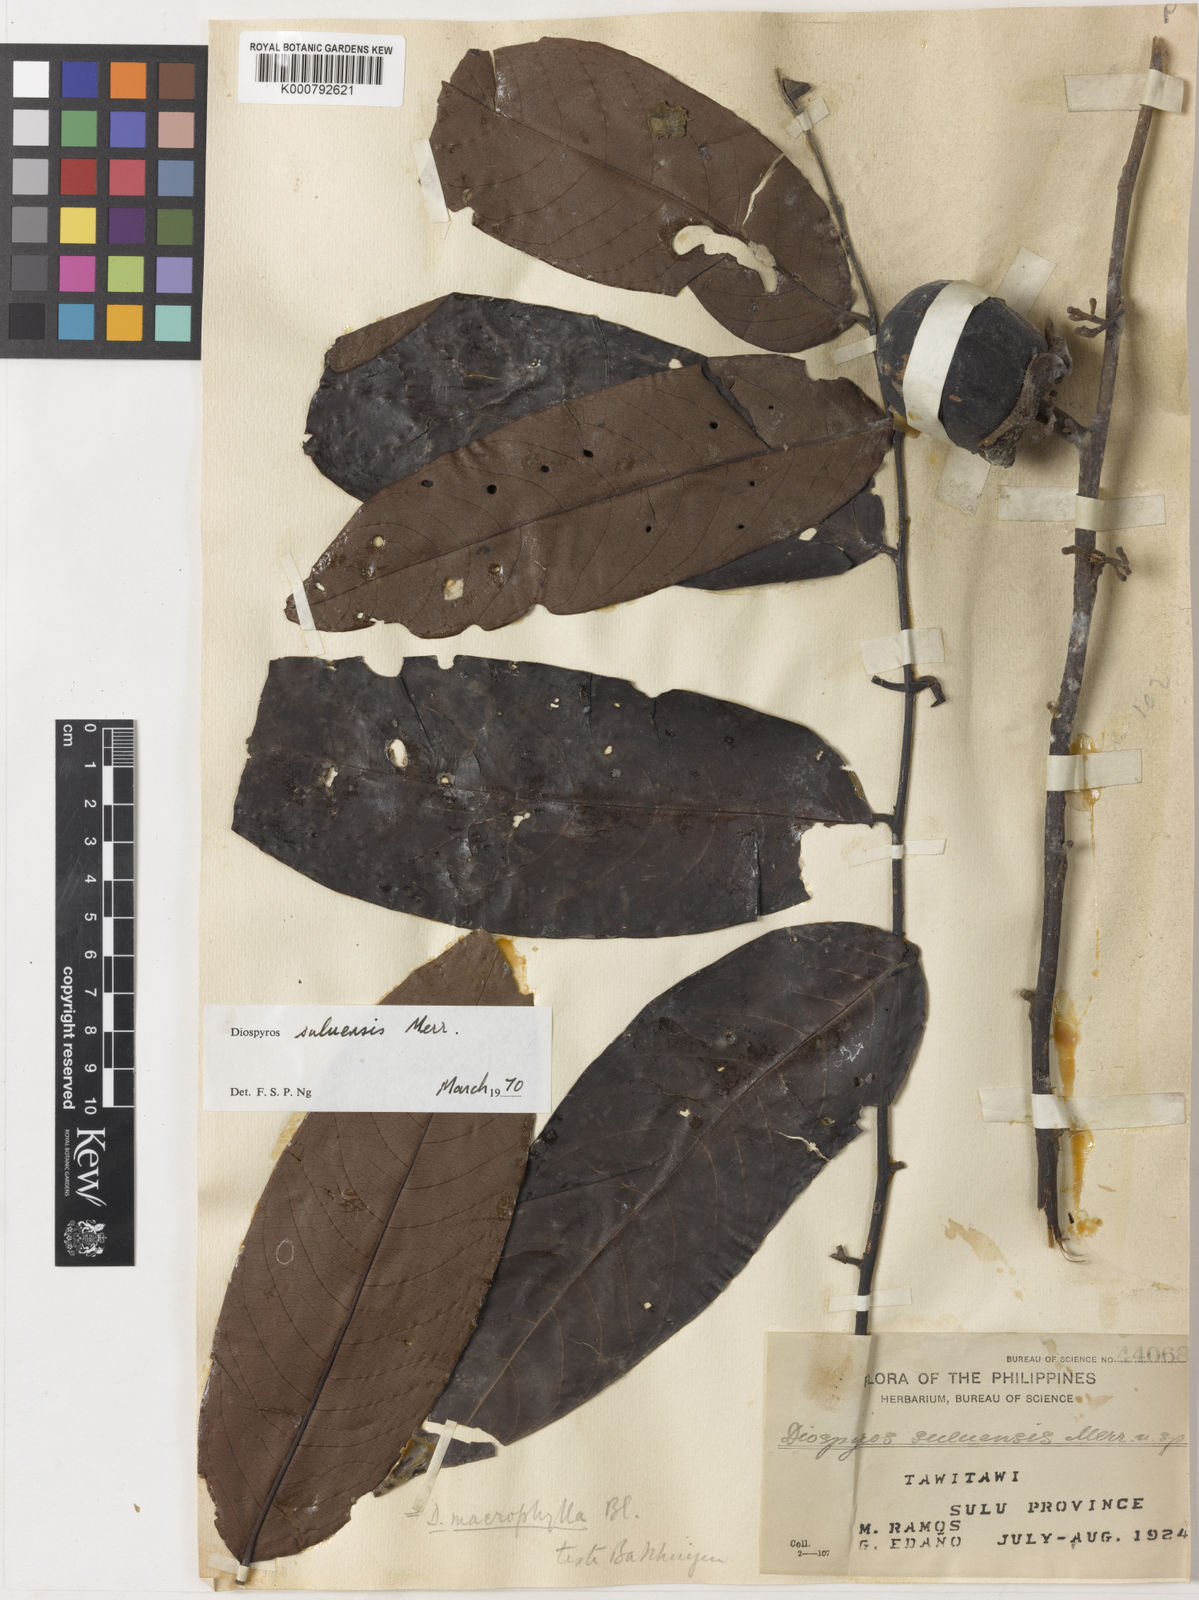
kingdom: Plantae
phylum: Tracheophyta
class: Magnoliopsida
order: Ericales
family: Ebenaceae
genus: Diospyros
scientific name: Diospyros macrophylla
